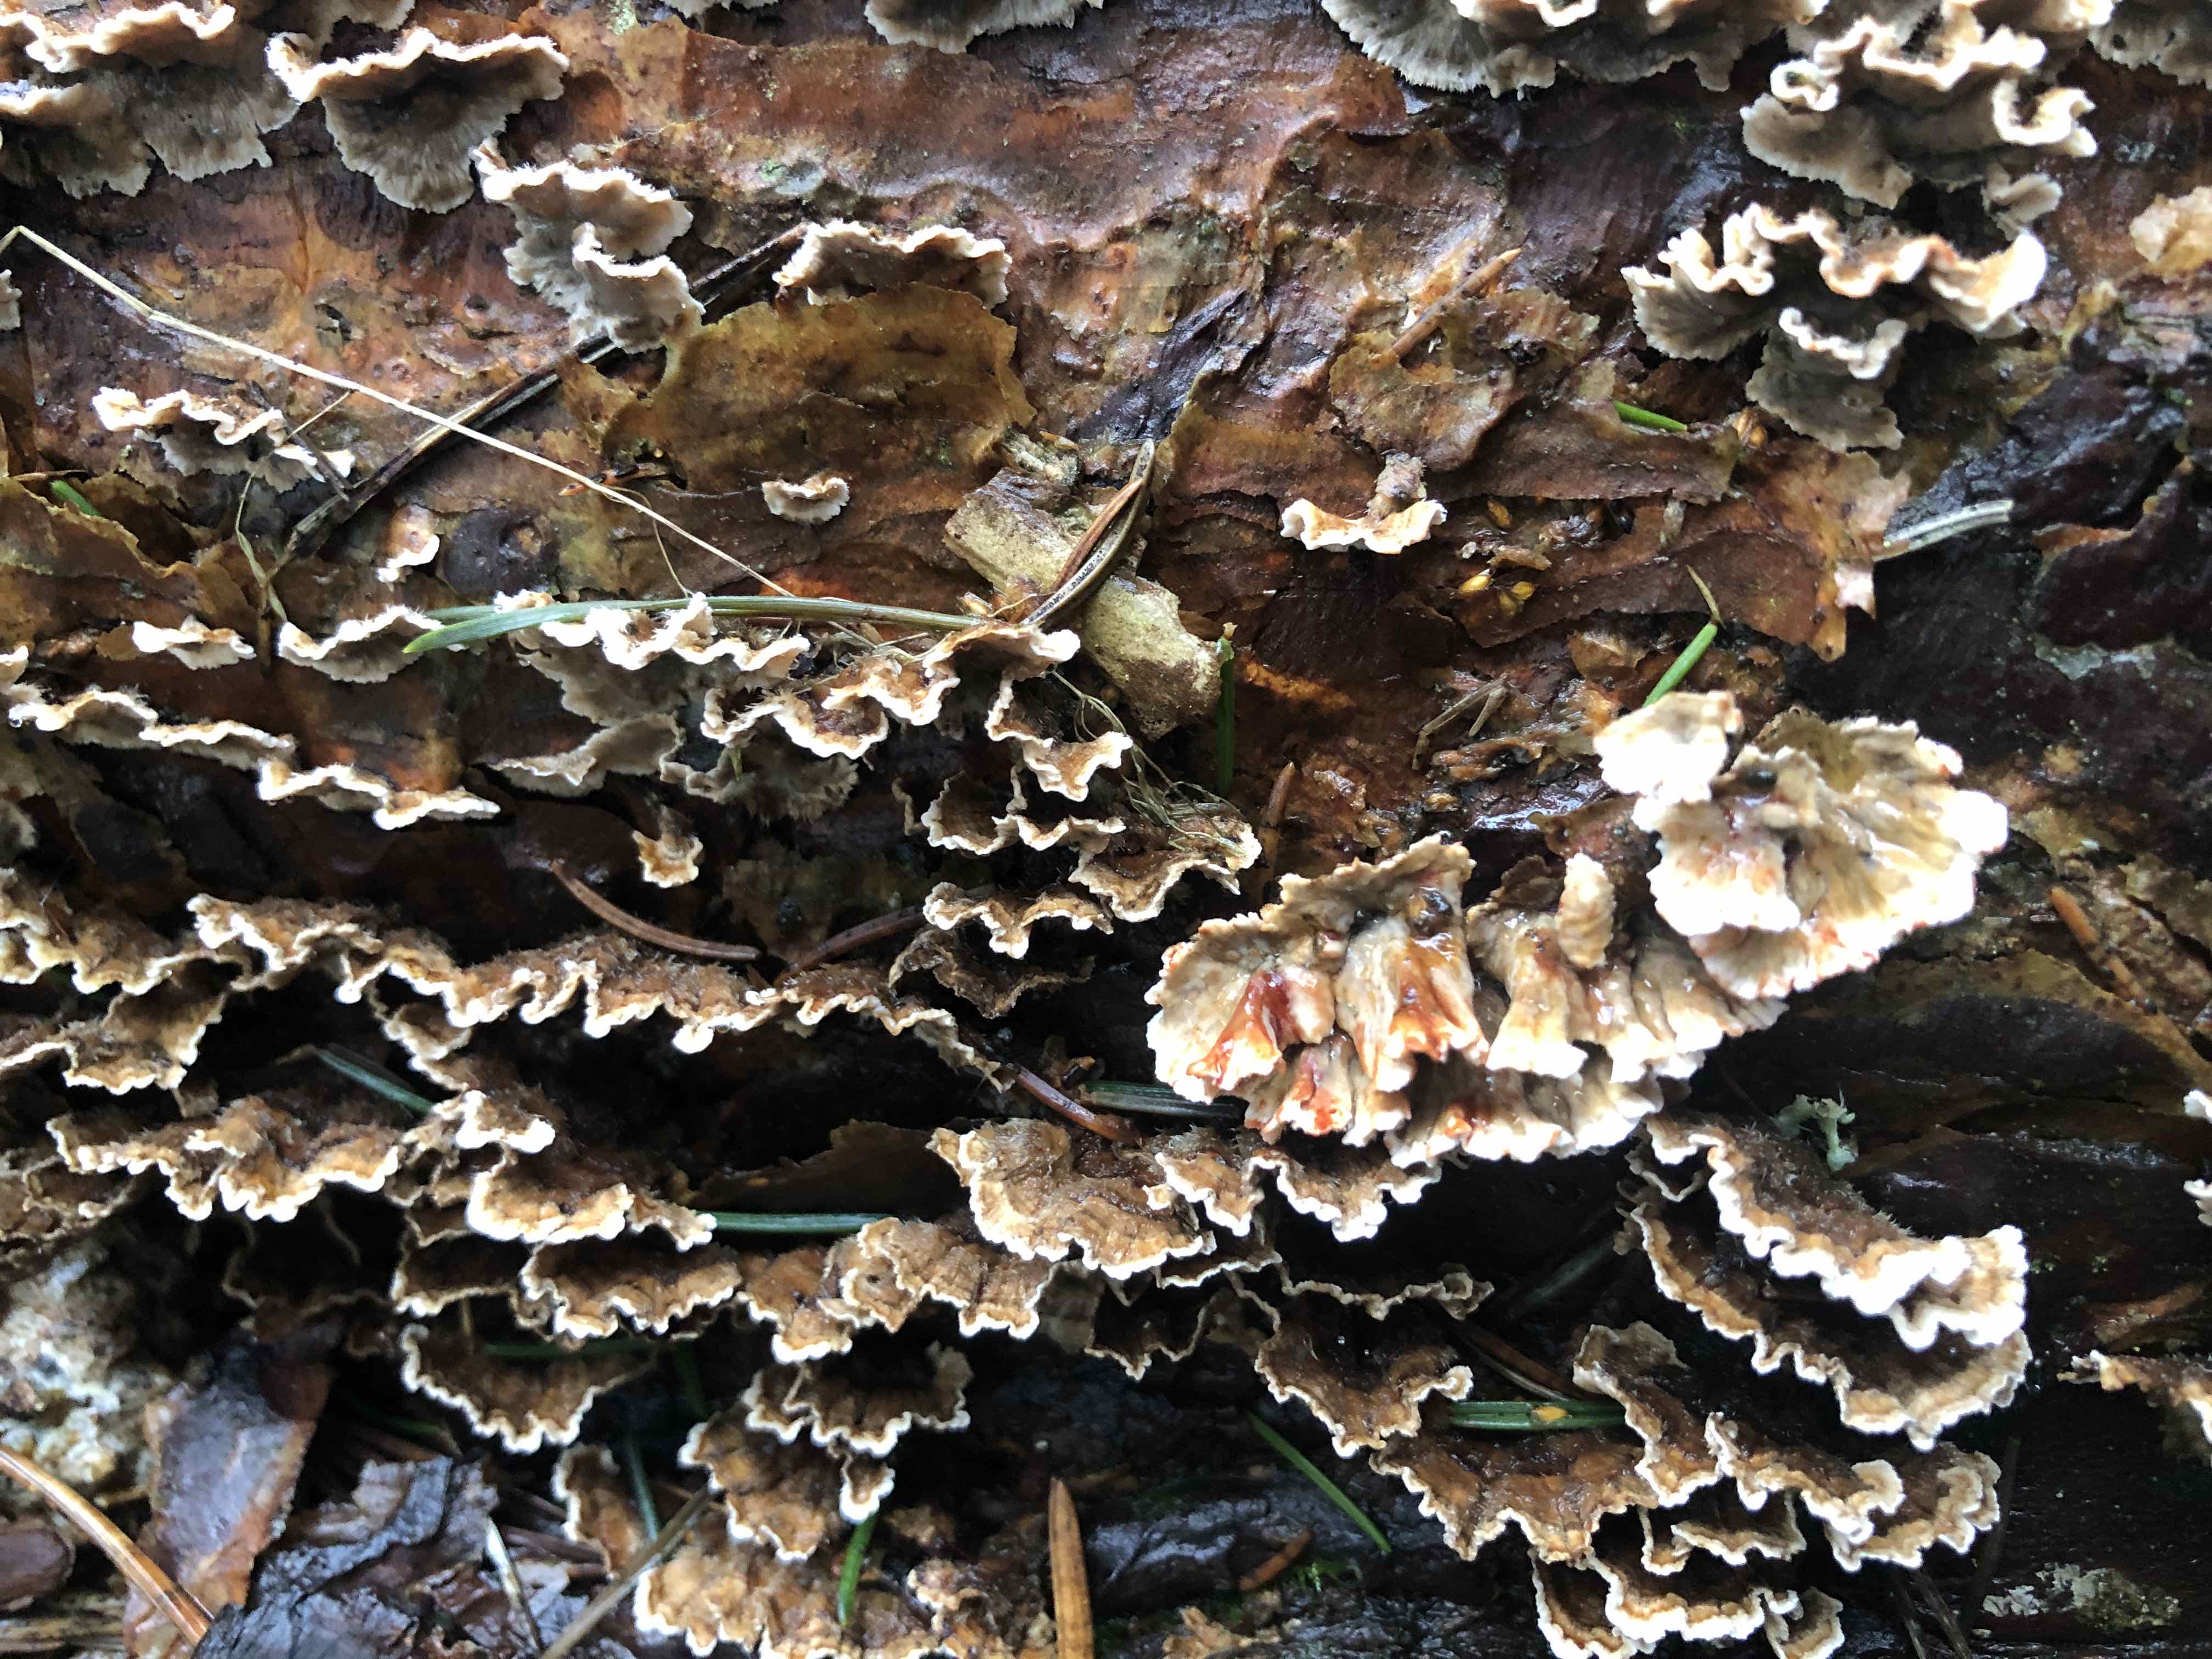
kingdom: Fungi
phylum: Basidiomycota
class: Agaricomycetes
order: Russulales
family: Stereaceae
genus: Stereum
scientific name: Stereum sanguinolentum
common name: blødende lædersvamp
